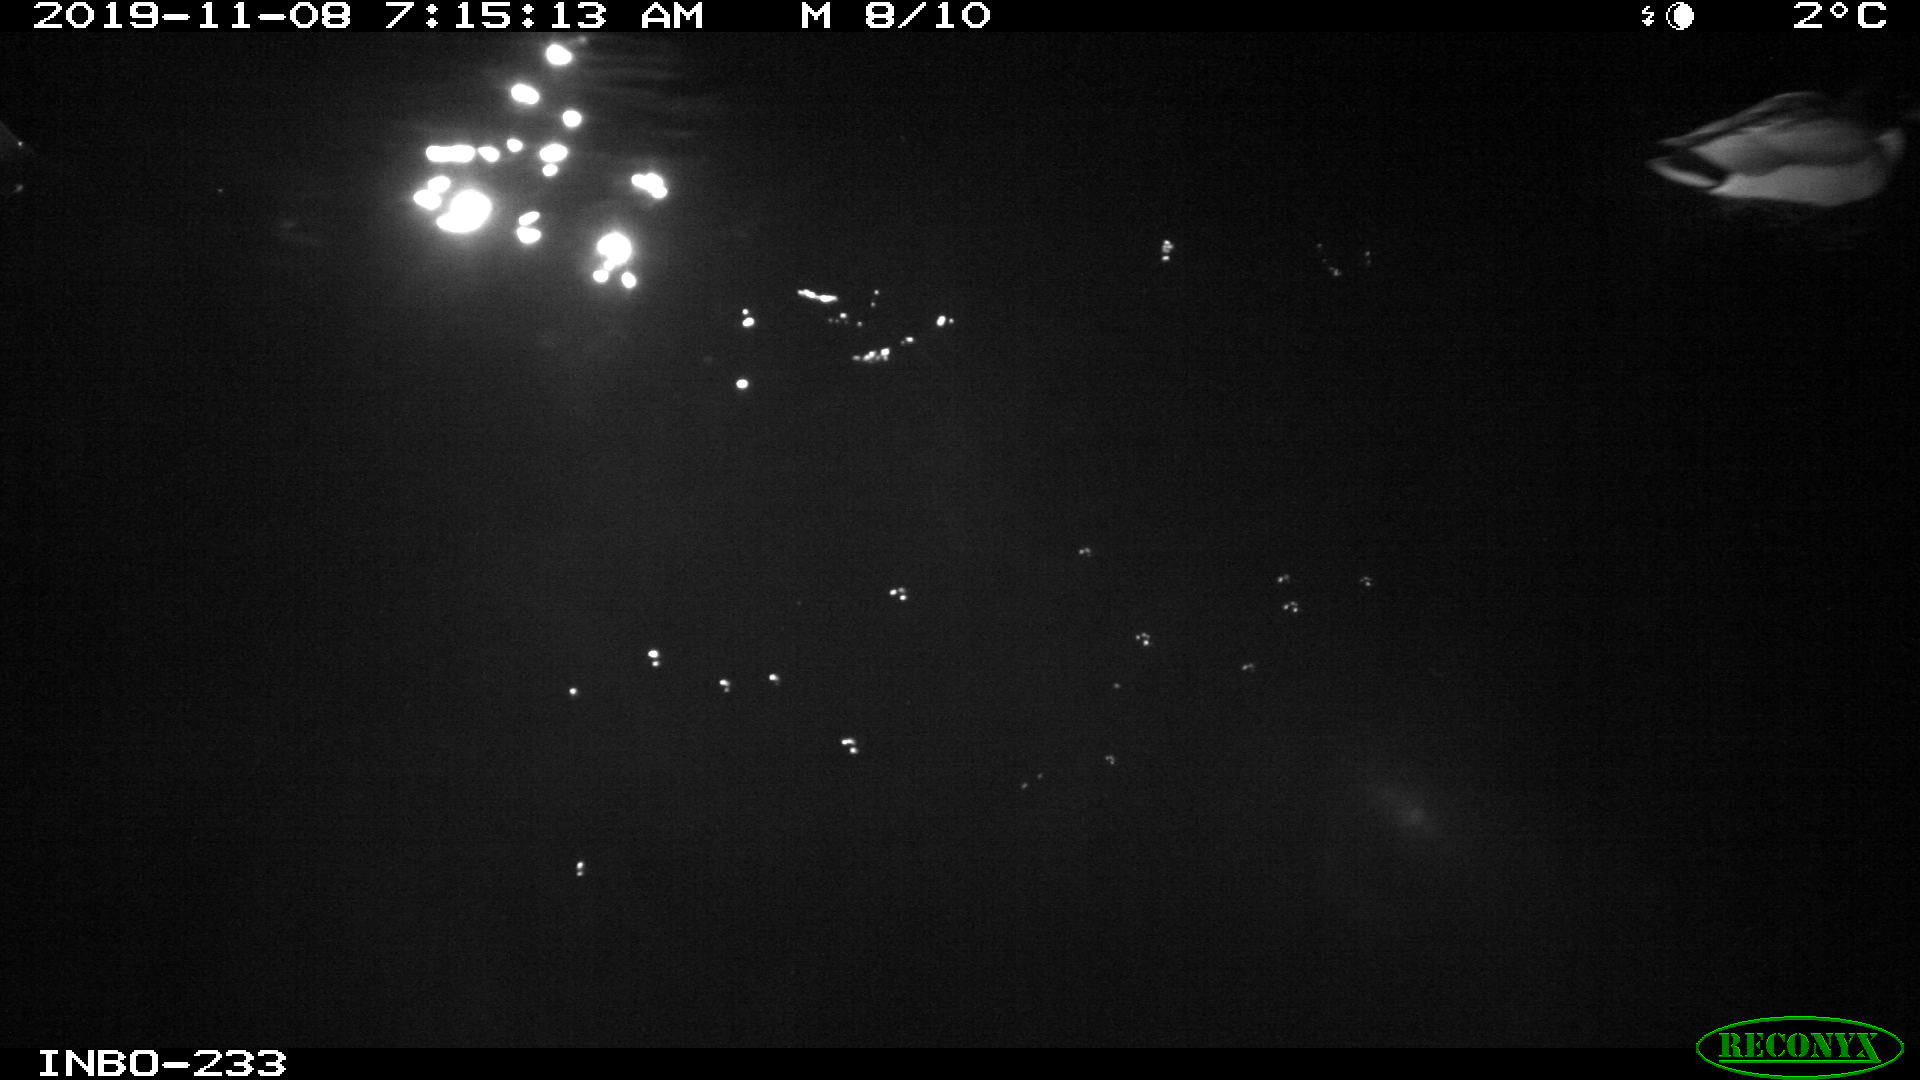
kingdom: Animalia
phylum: Chordata
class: Aves
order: Anseriformes
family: Anatidae
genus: Anas
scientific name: Anas platyrhynchos
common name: Mallard
